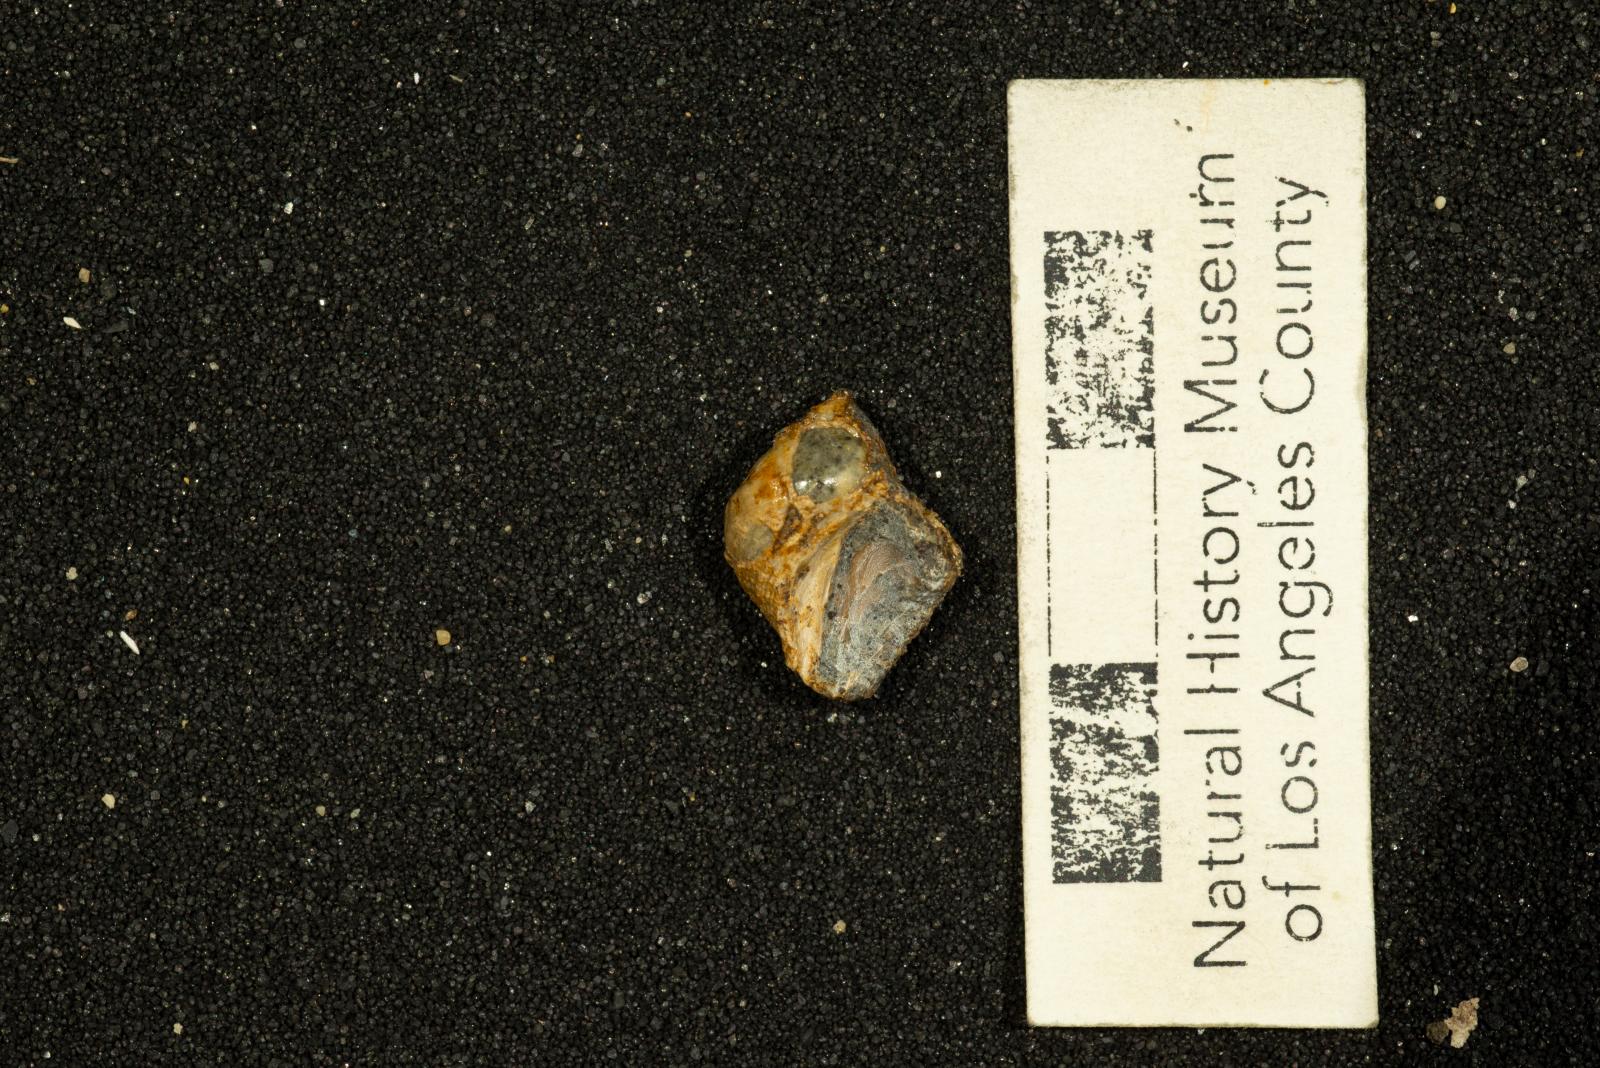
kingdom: Animalia
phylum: Mollusca
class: Gastropoda
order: Littorinimorpha
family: Calyptraeidae
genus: Lysis
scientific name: Lysis mickeyi
